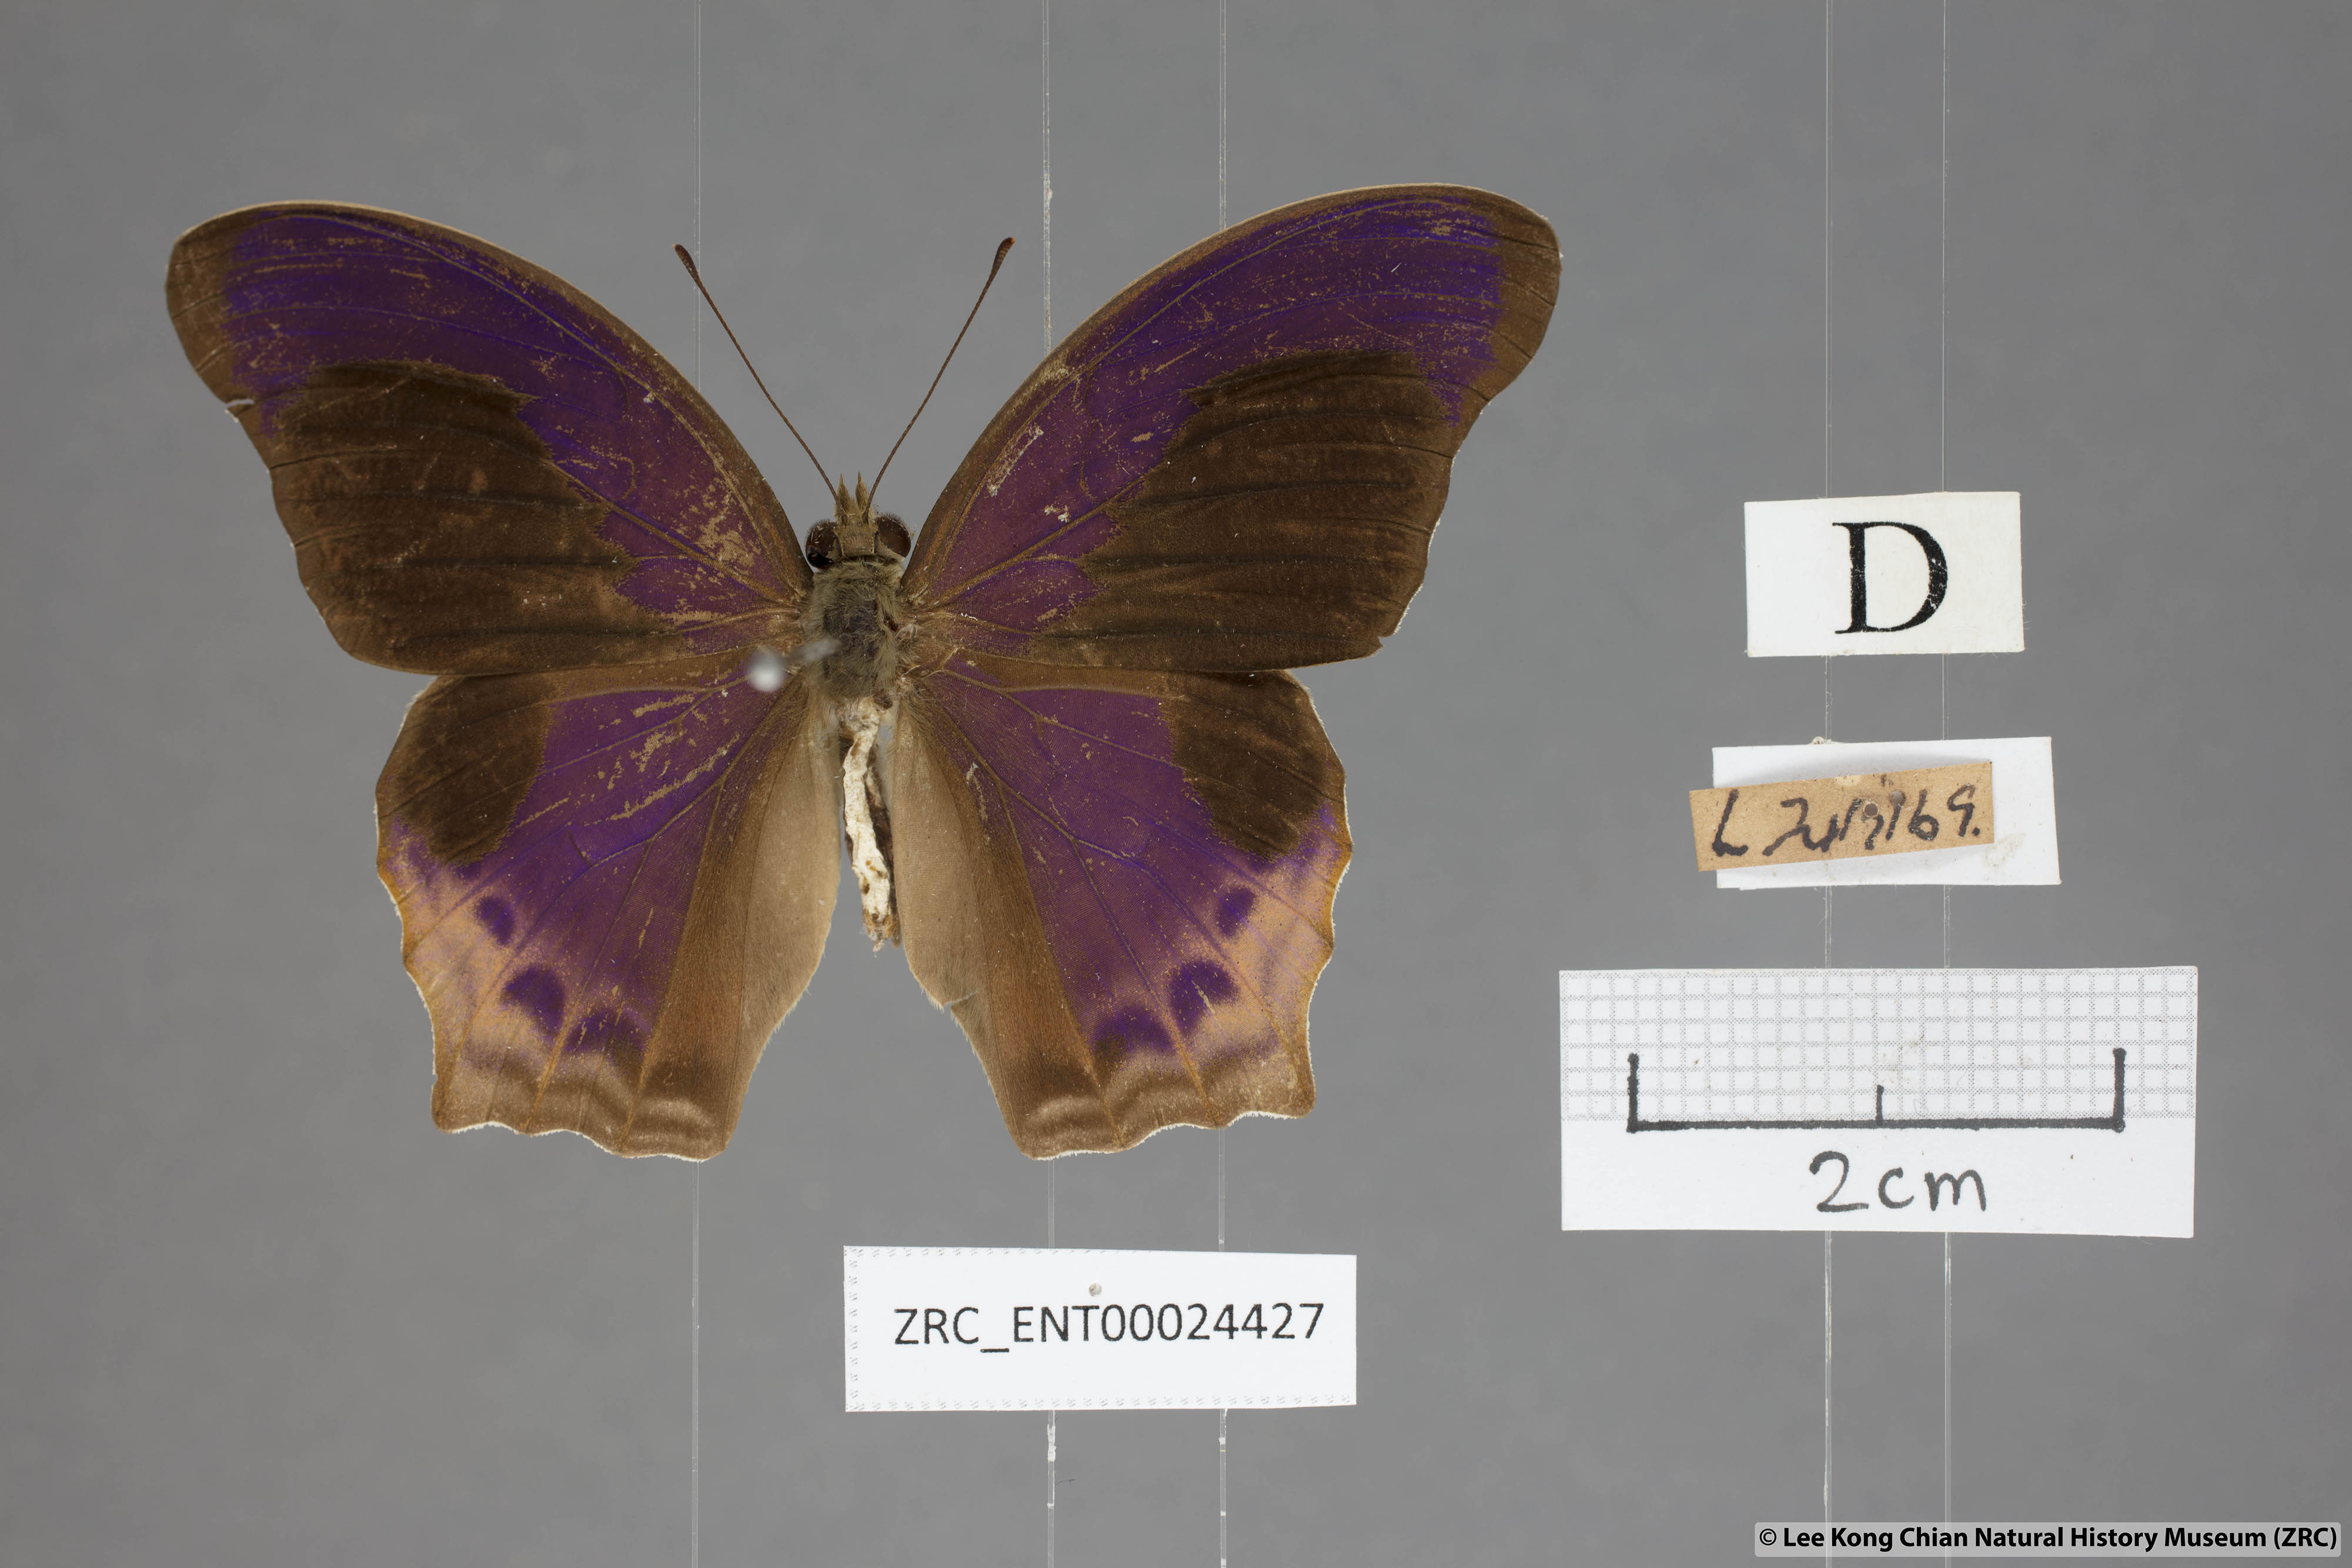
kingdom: Animalia
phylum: Arthropoda
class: Insecta
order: Lepidoptera
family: Nymphalidae
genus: Terinos
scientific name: Terinos clarissa
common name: Malayan assyrian
